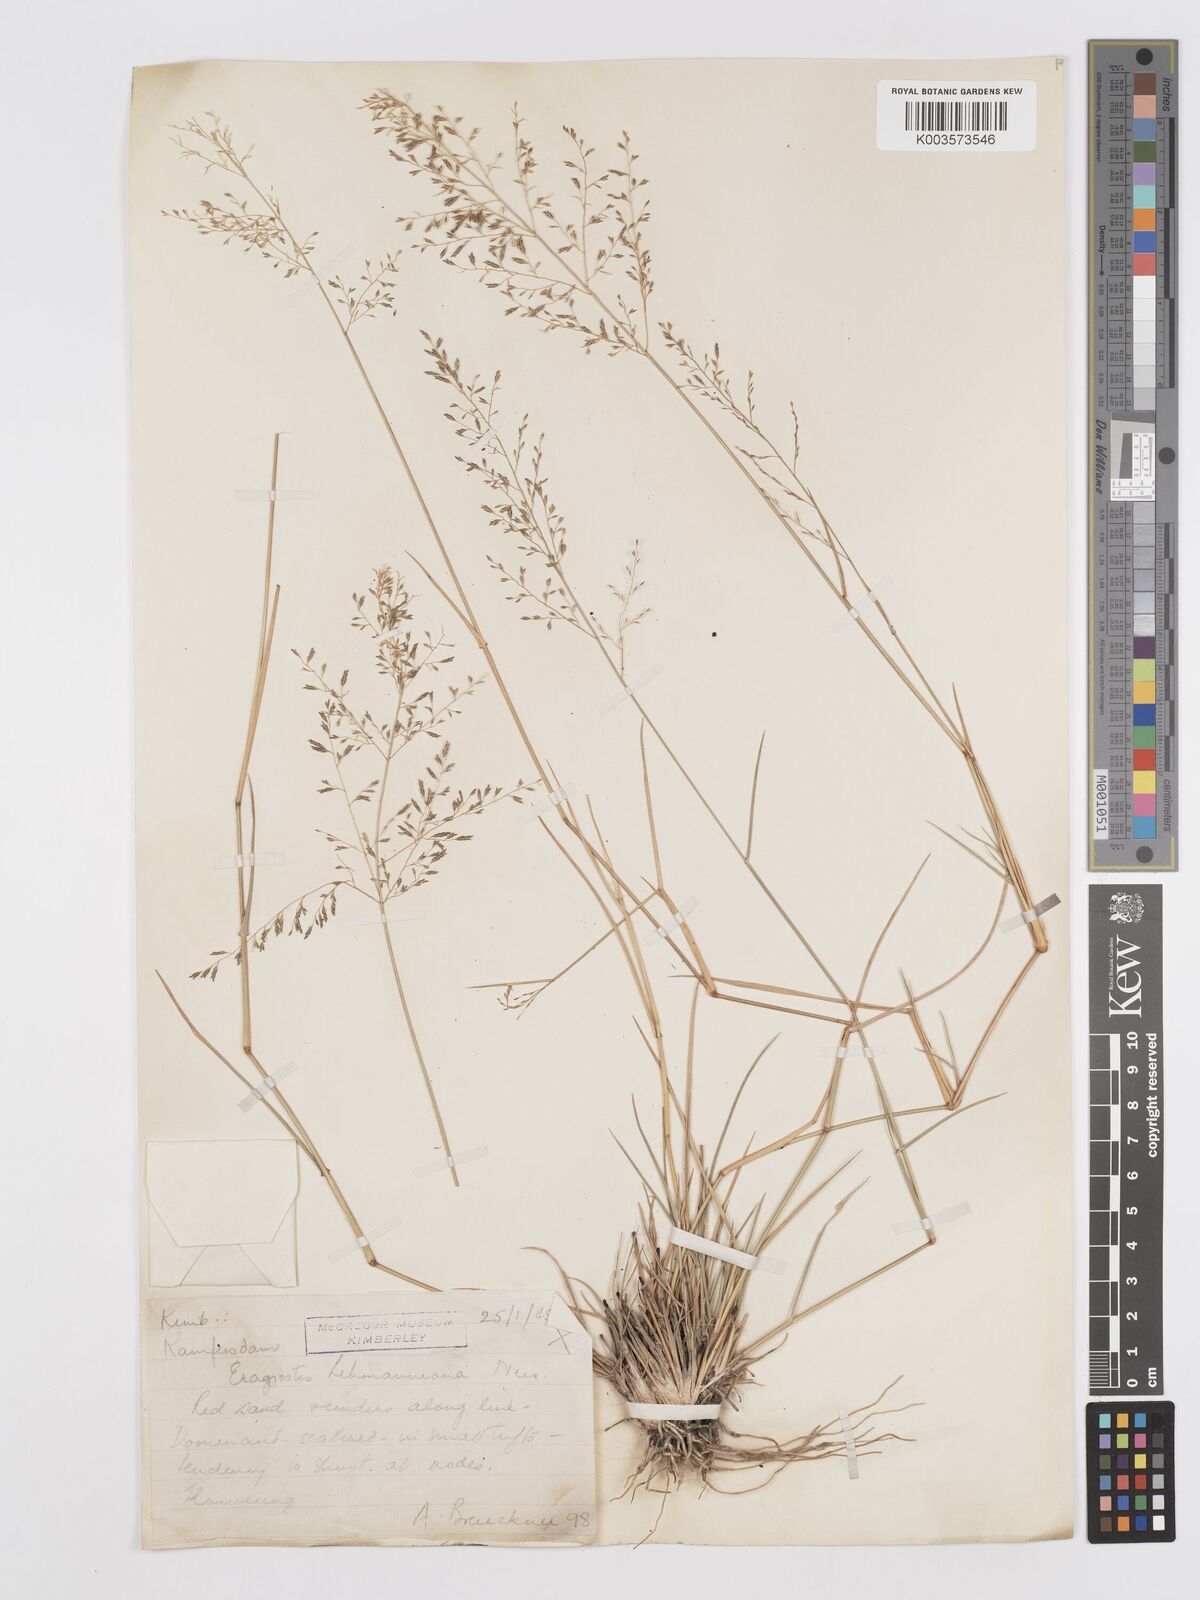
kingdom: Plantae
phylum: Tracheophyta
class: Liliopsida
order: Poales
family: Poaceae
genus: Eragrostis
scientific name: Eragrostis lehmanniana
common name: Lehmann lovegrass
